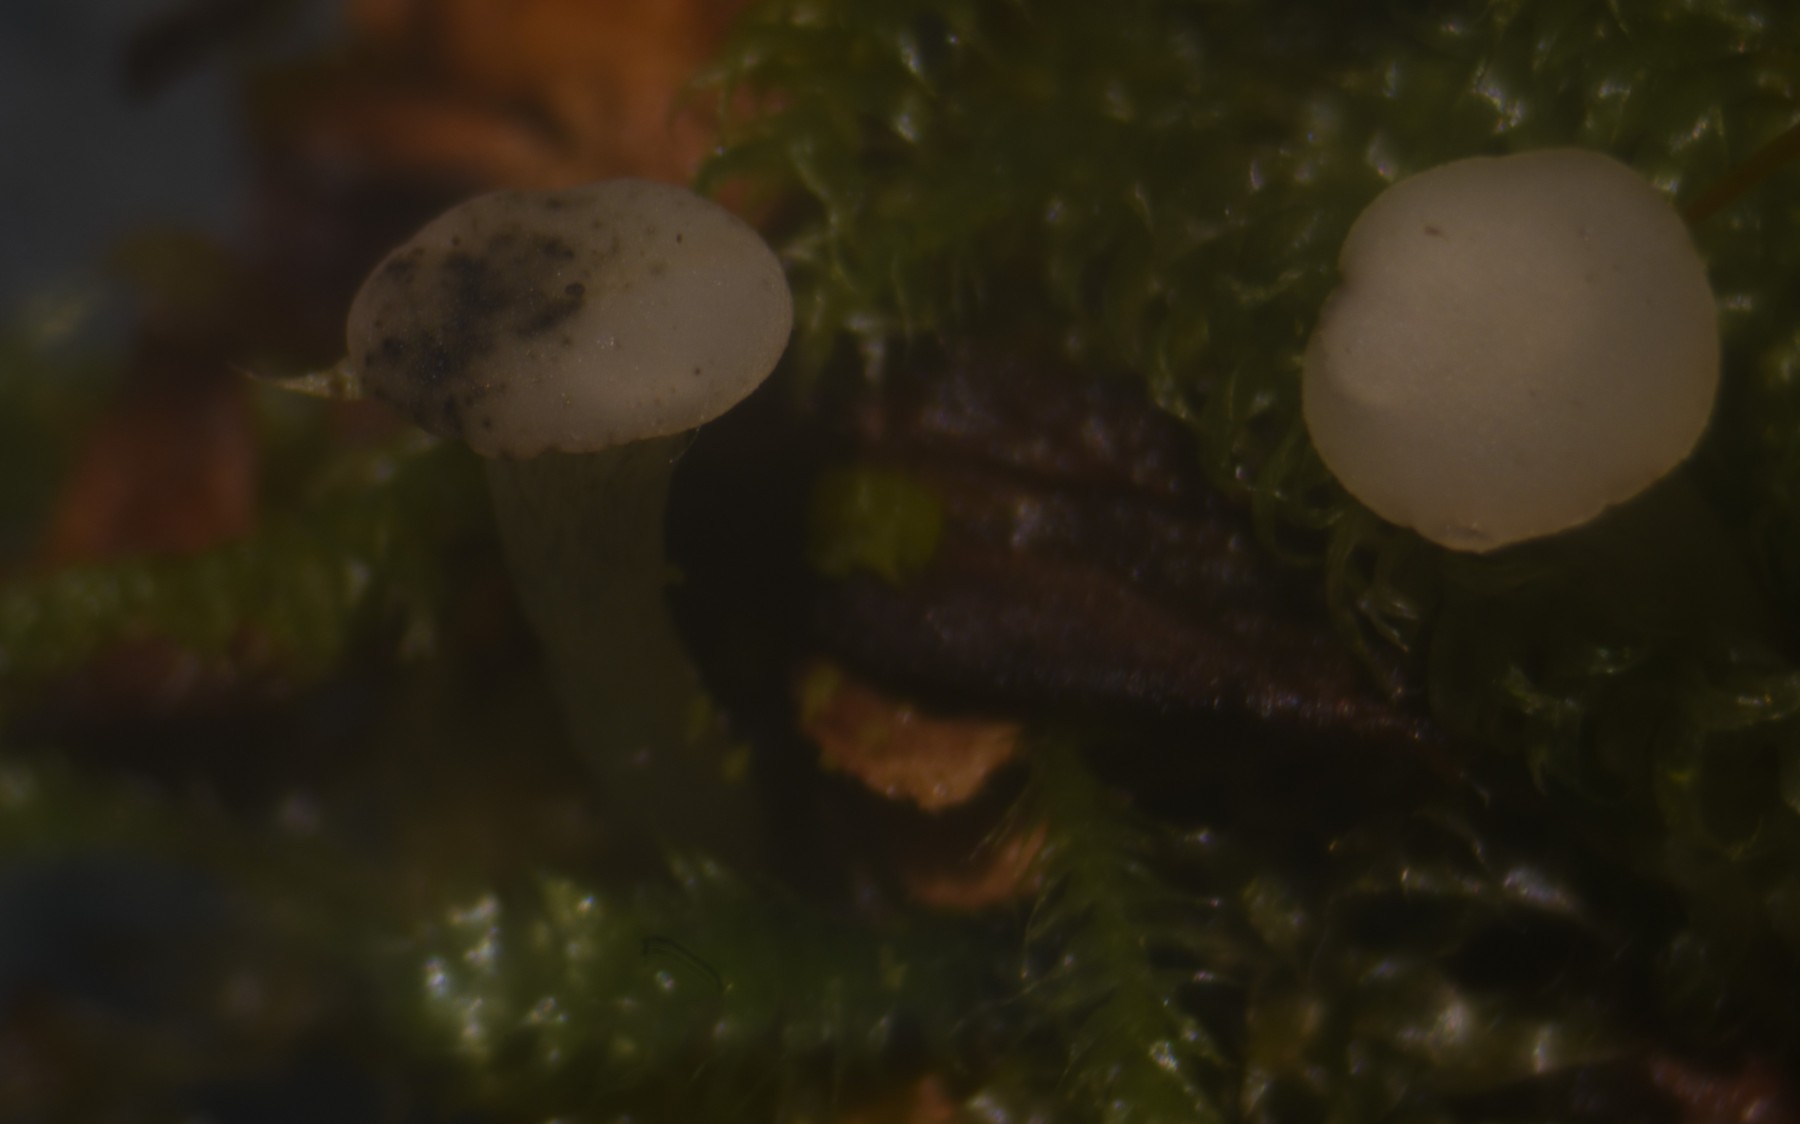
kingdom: Fungi
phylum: Ascomycota
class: Leotiomycetes
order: Helotiales
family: Tricladiaceae
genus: Cudoniella
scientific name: Cudoniella acicularis
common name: ege-dyndskive
